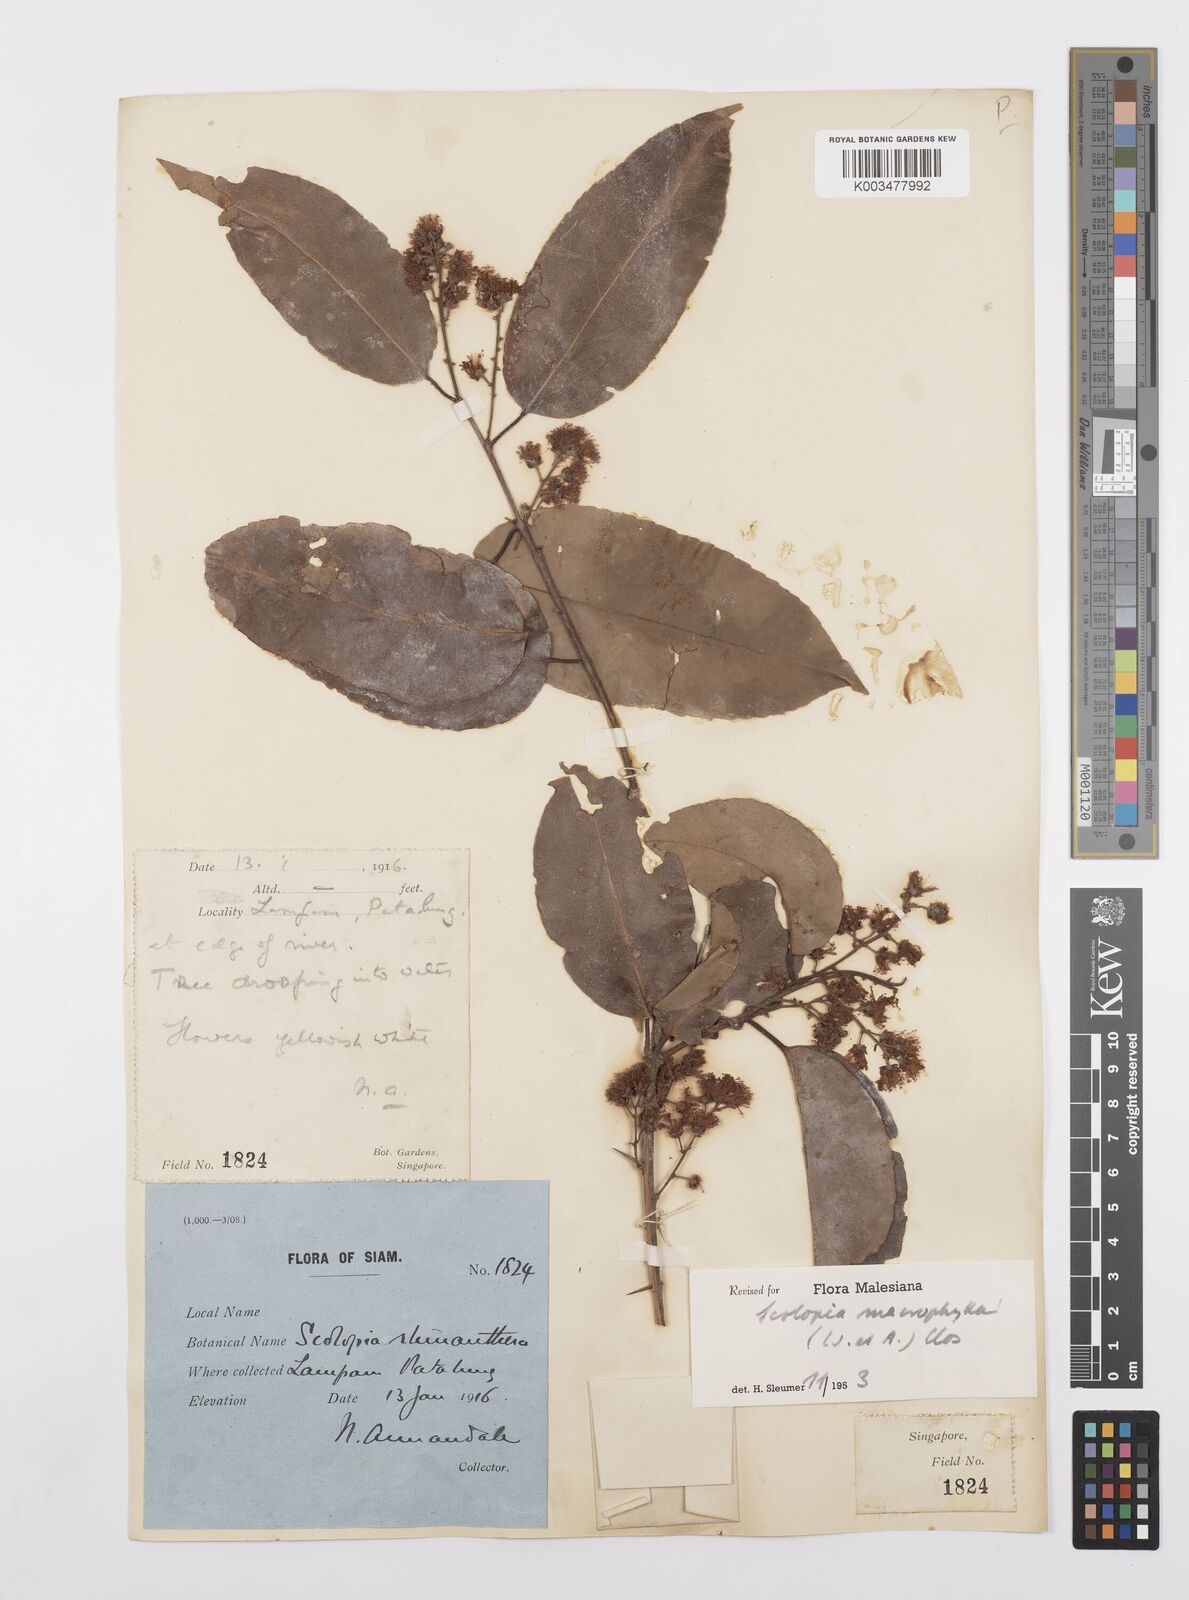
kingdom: Plantae
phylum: Tracheophyta
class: Magnoliopsida
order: Malpighiales
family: Salicaceae
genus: Scolopia
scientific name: Scolopia macrophylla
